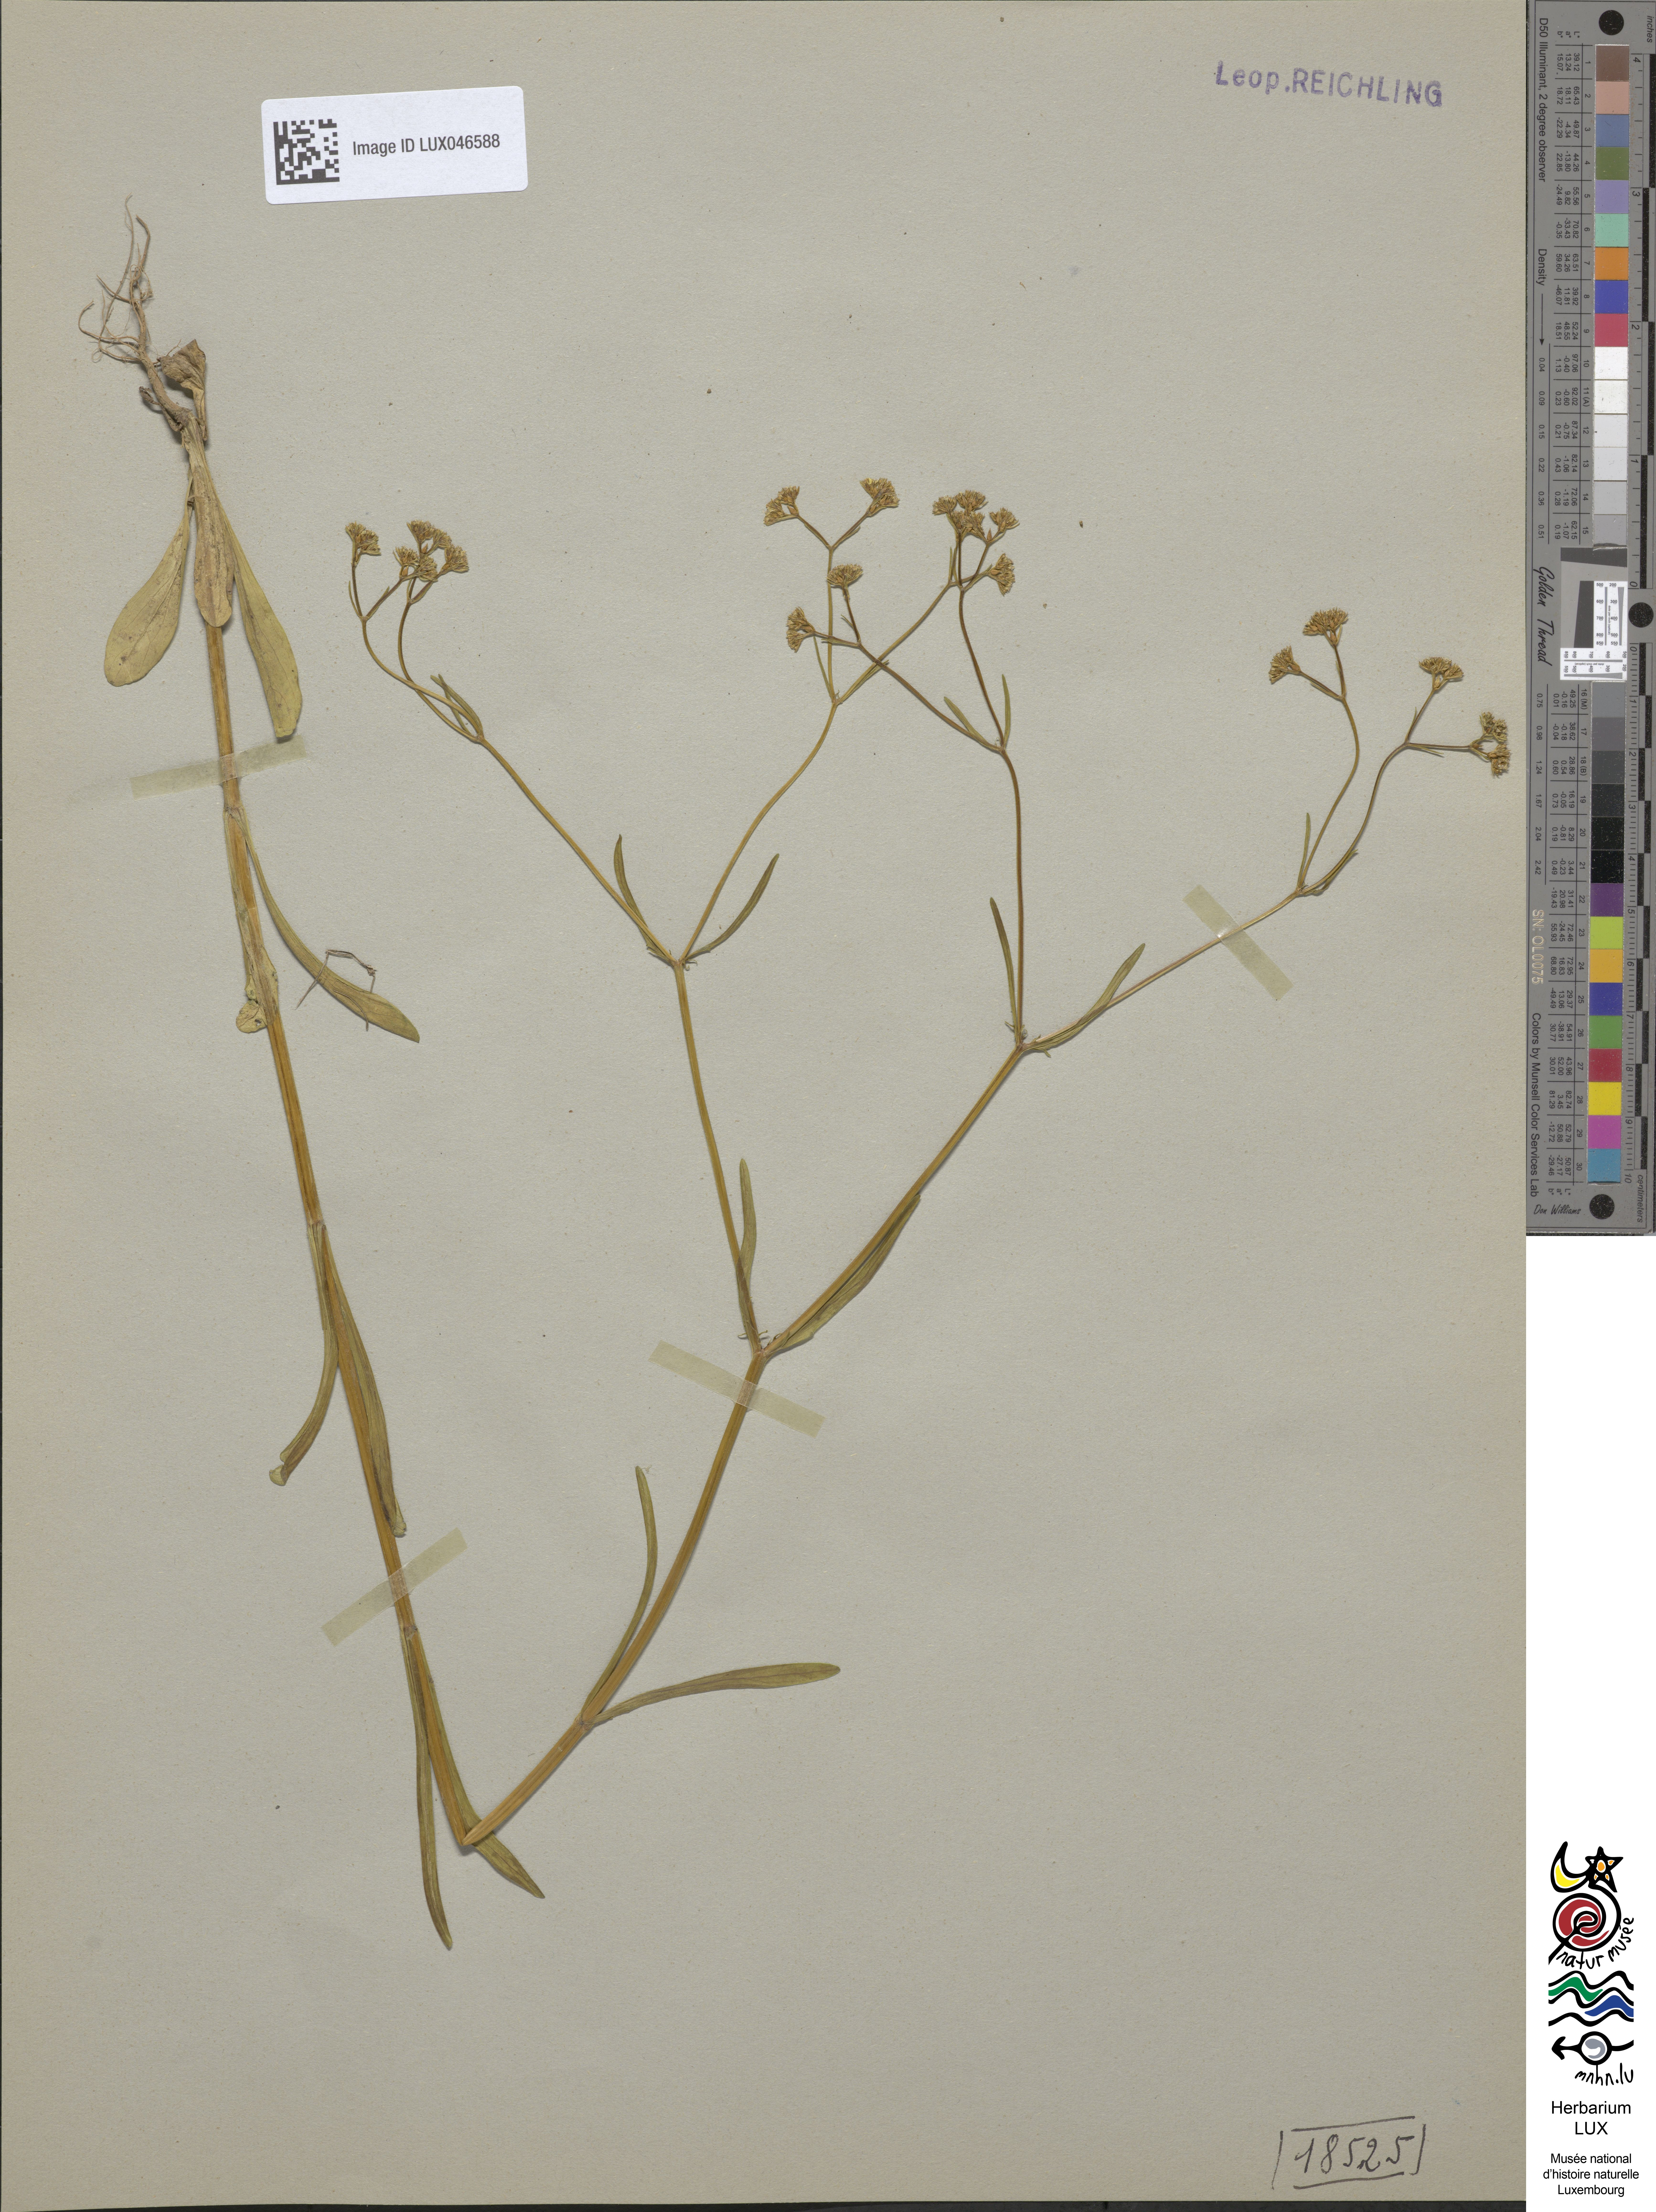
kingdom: Plantae
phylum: Tracheophyta
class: Magnoliopsida
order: Dipsacales
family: Caprifoliaceae
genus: Valerianella
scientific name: Valerianella dentata
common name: Narrow-fruited cornsalad
